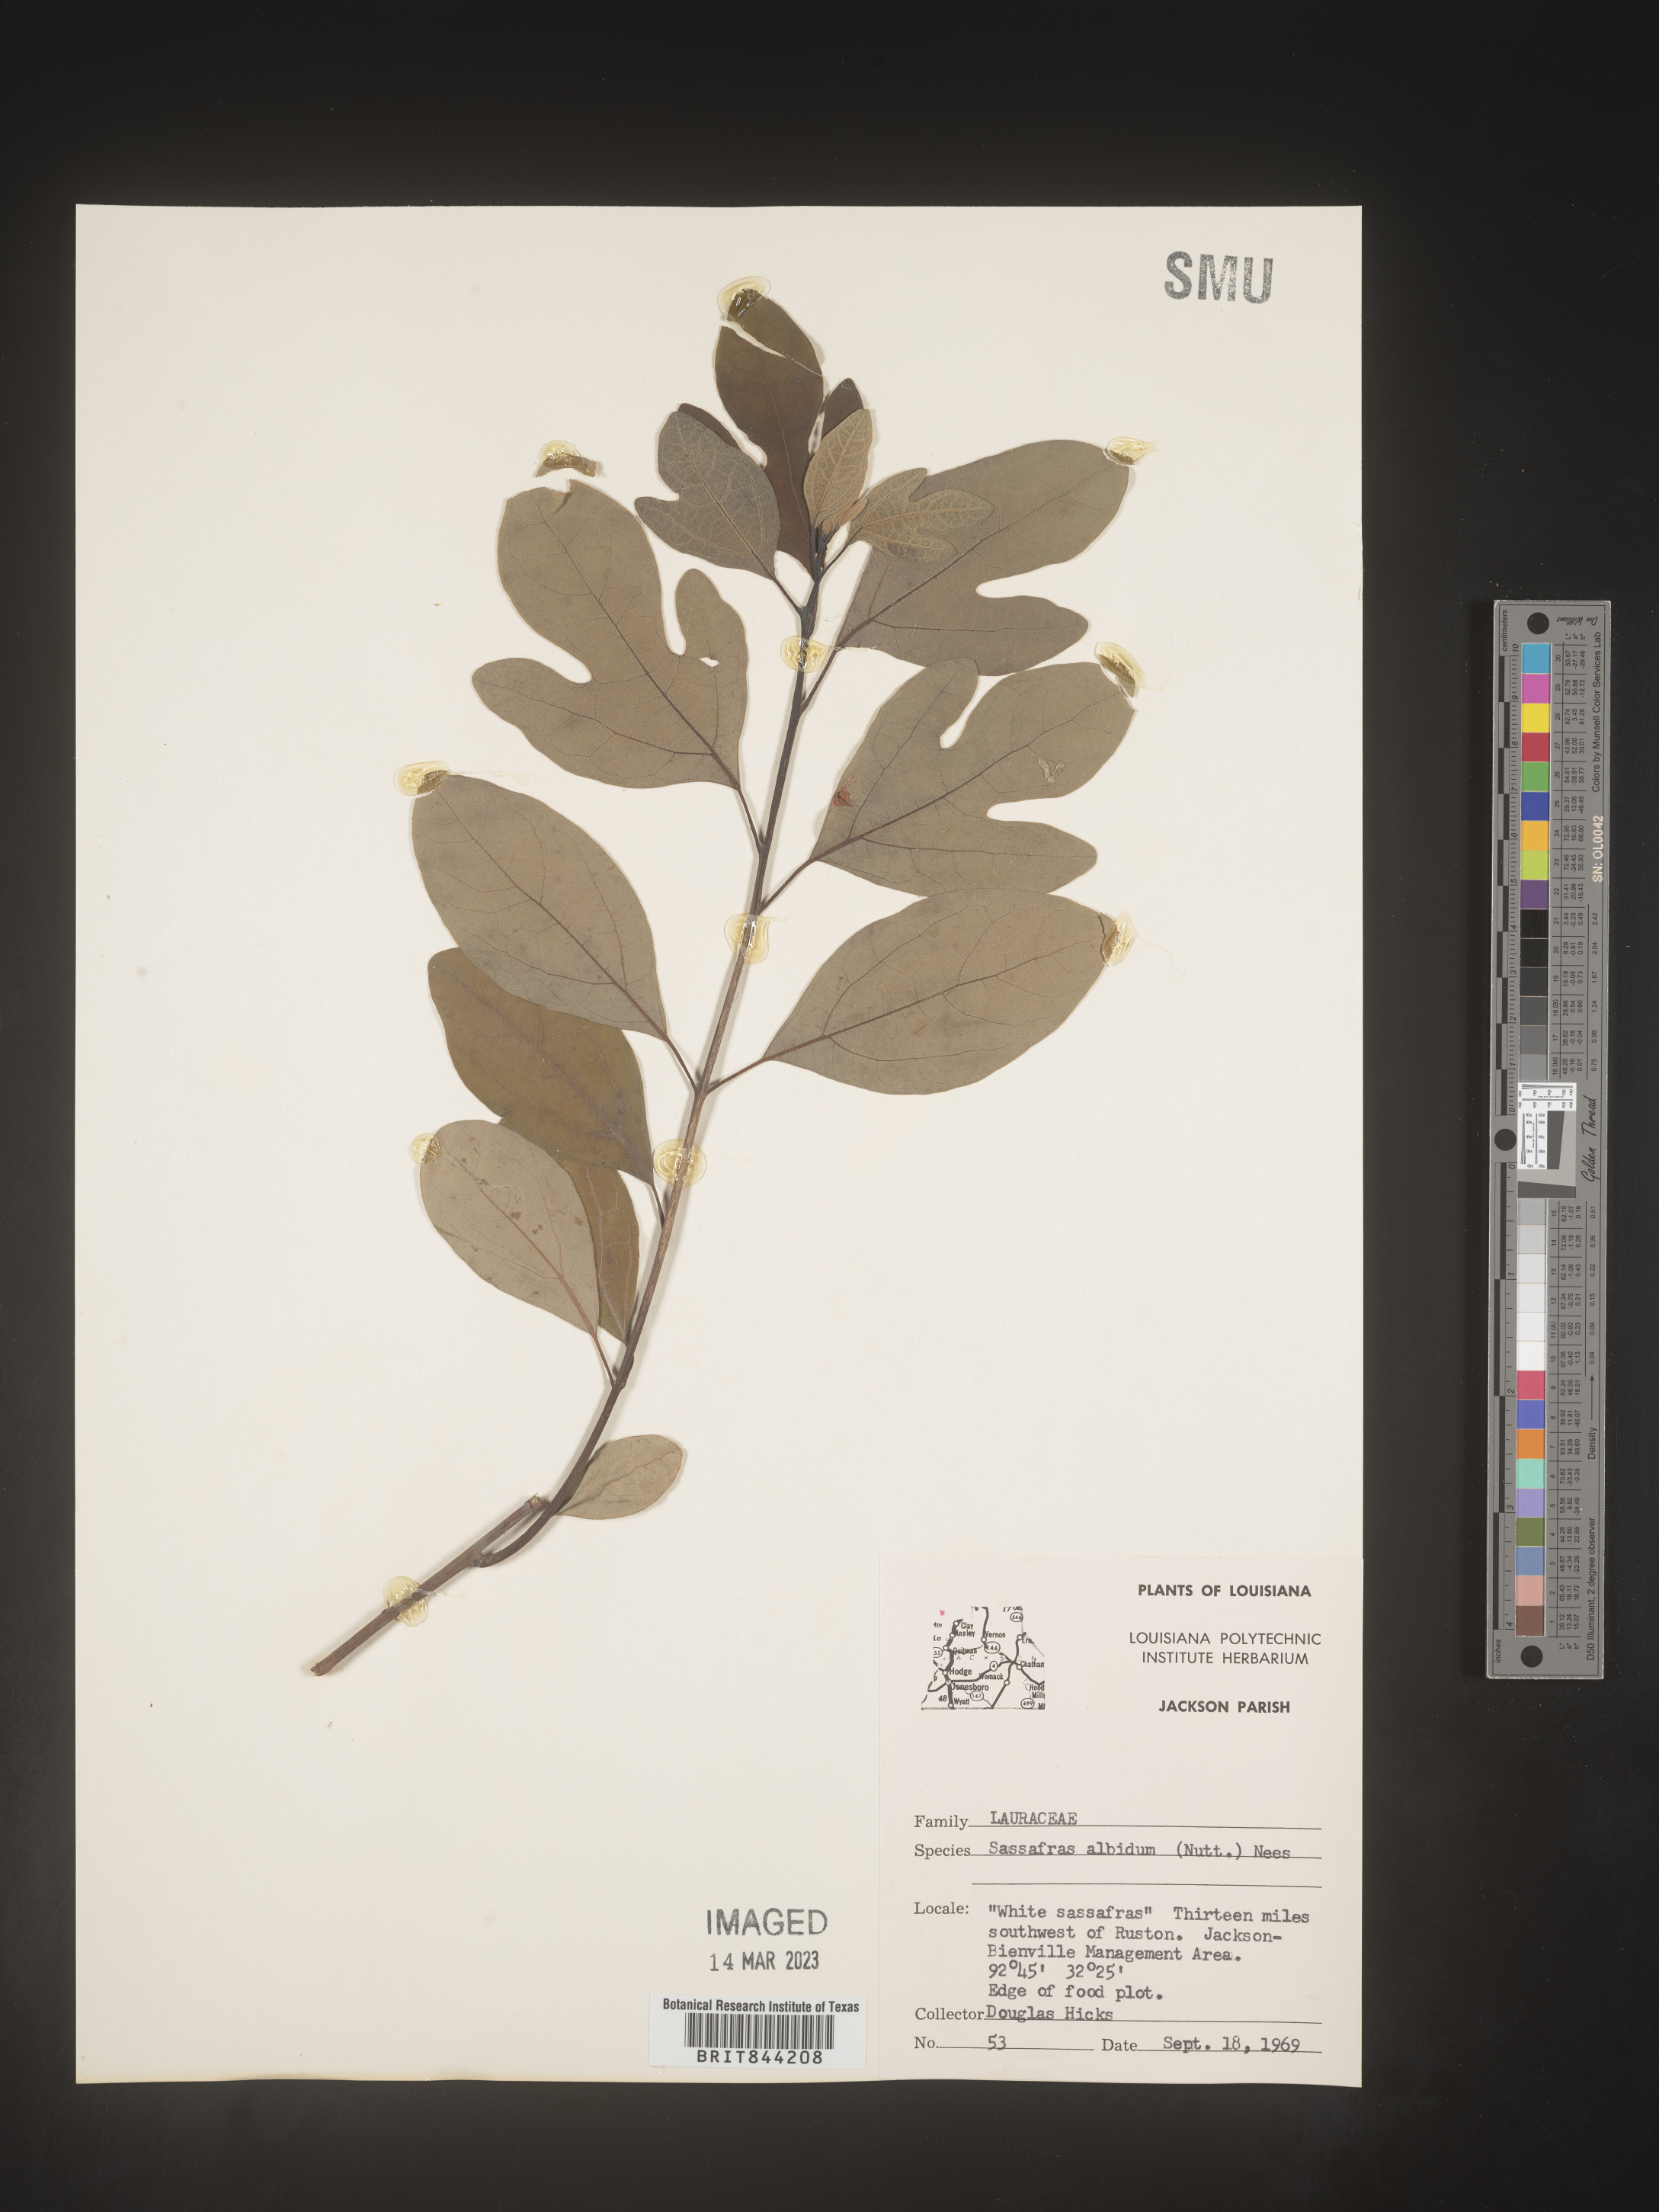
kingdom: Plantae
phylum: Tracheophyta
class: Magnoliopsida
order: Laurales
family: Lauraceae
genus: Sassafras
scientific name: Sassafras albidum
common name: Sassafras
